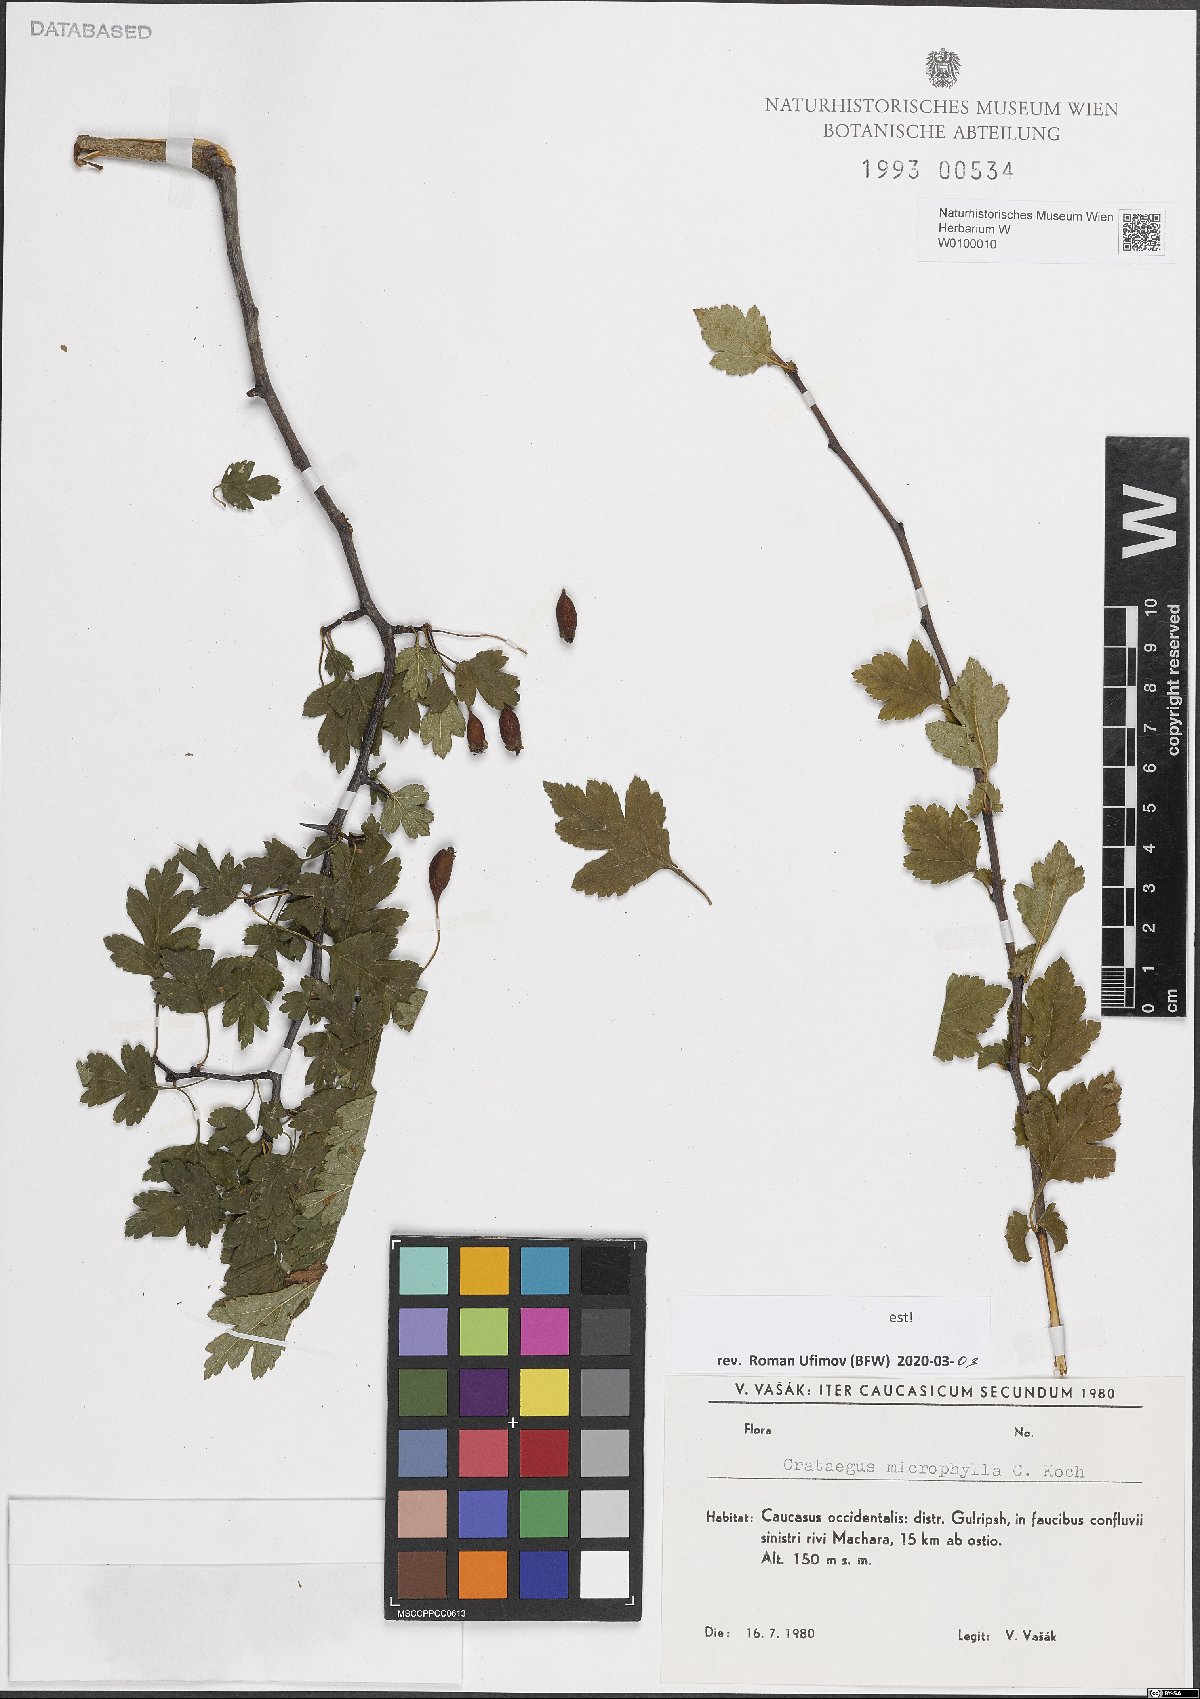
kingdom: Plantae
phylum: Tracheophyta
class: Magnoliopsida
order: Rosales
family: Rosaceae
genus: Crataegus
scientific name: Crataegus microphylla
